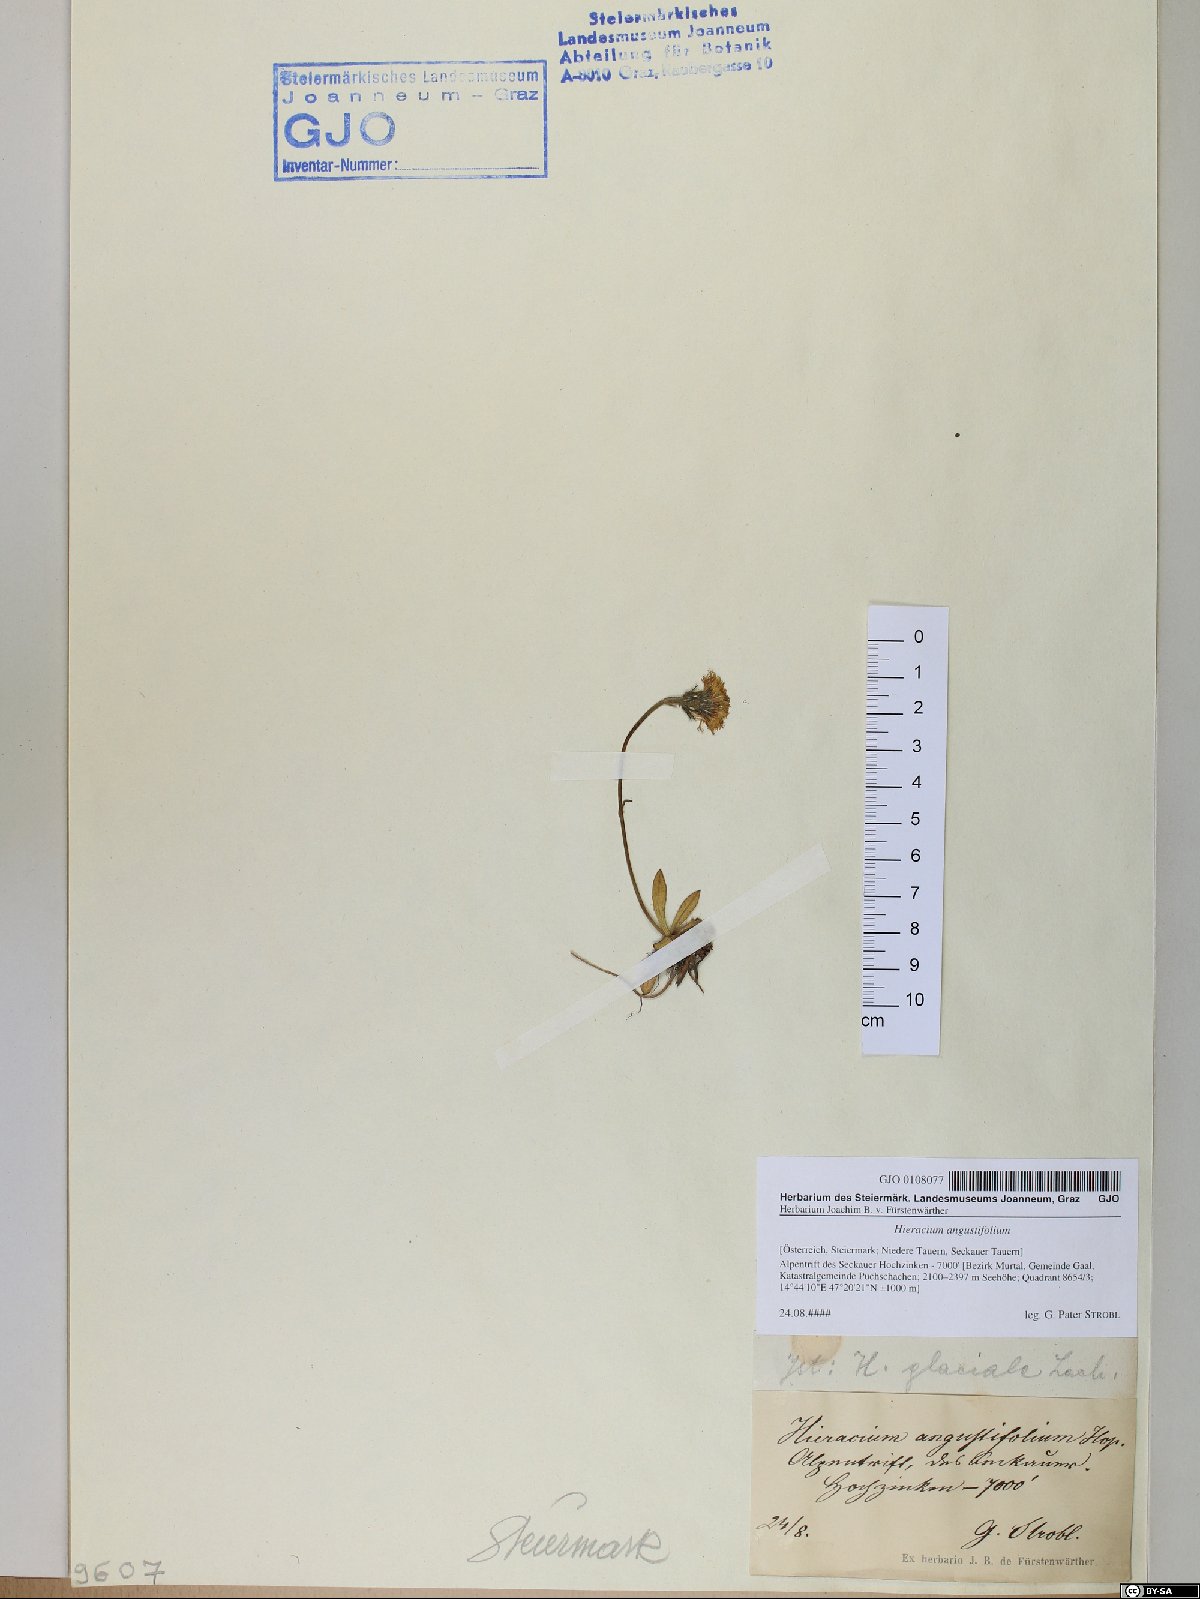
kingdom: Plantae
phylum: Tracheophyta
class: Magnoliopsida
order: Asterales
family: Asteraceae
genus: Pilosella
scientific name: Pilosella glacialis
